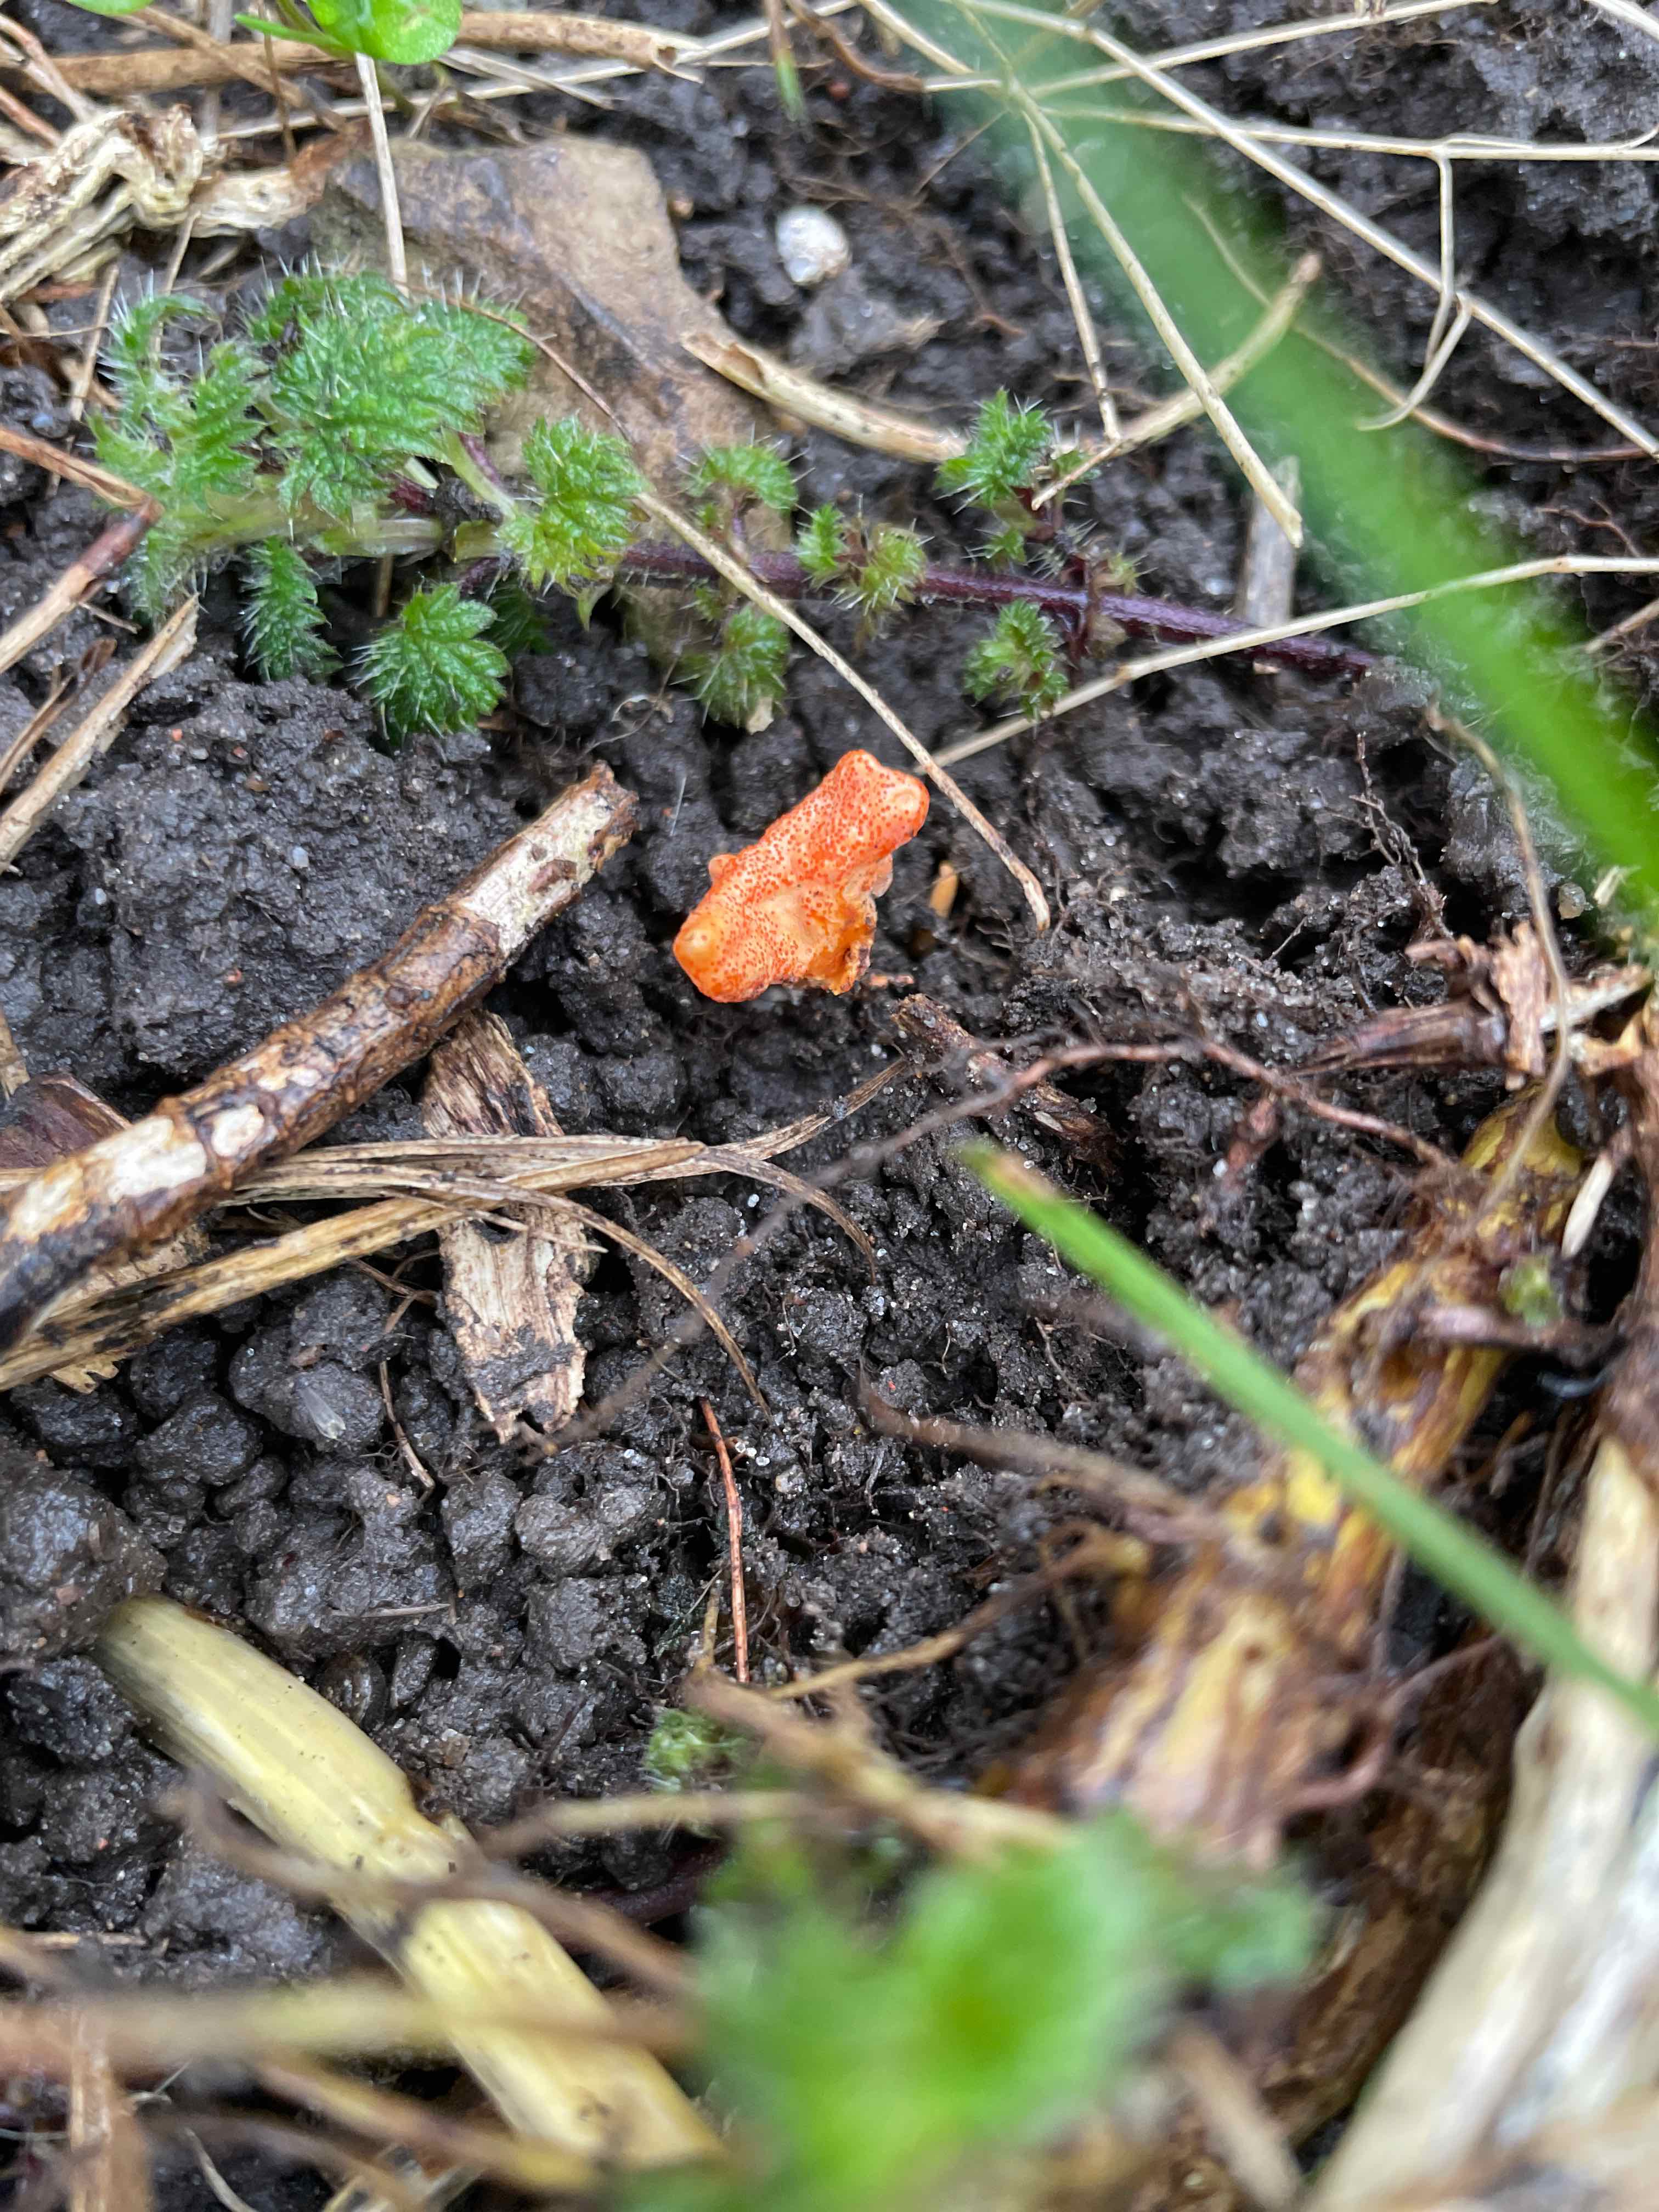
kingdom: Fungi
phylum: Ascomycota
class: Sordariomycetes
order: Hypocreales
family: Cordycipitaceae
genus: Cordyceps
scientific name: Cordyceps militaris
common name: puppe-snyltekølle
